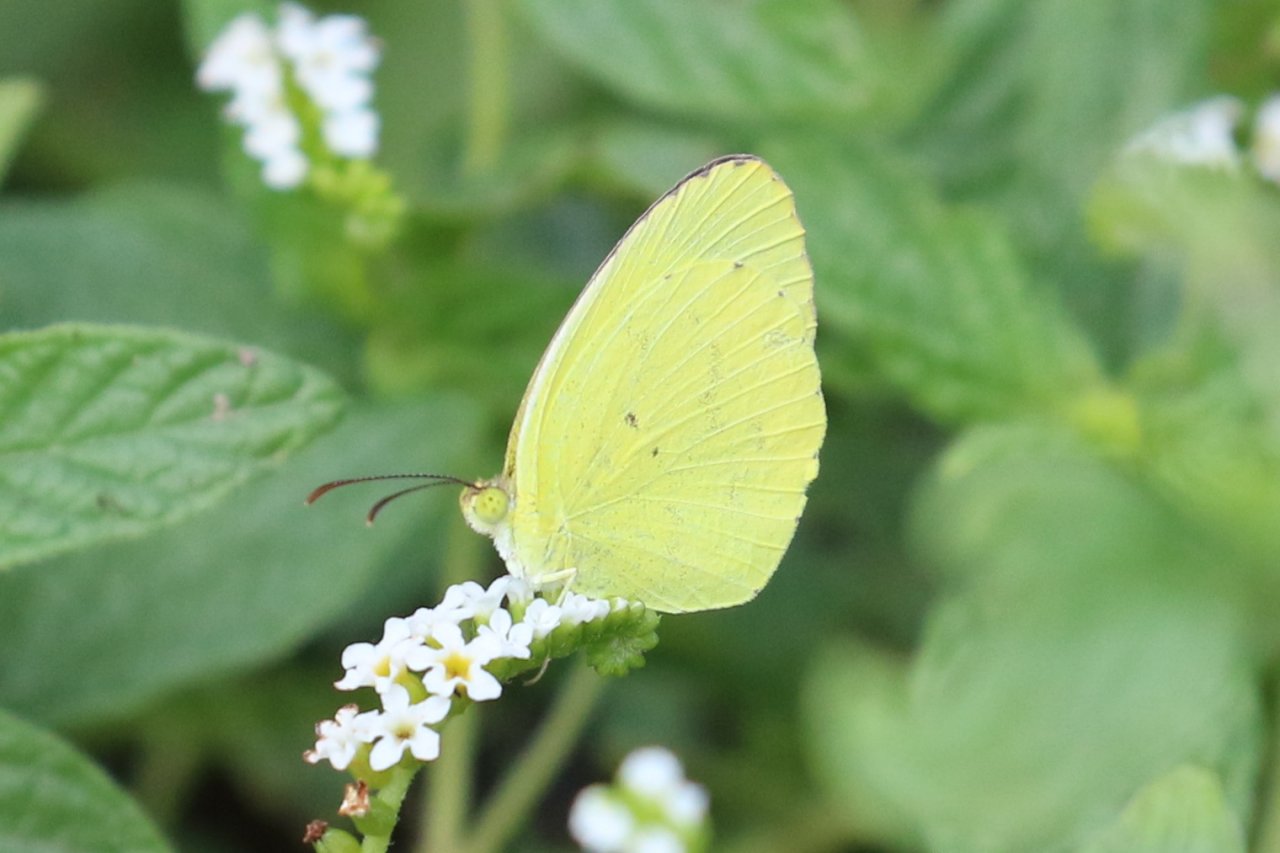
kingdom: Animalia
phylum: Arthropoda
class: Insecta
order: Lepidoptera
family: Pieridae
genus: Pyrisitia
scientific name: Pyrisitia nise
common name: Mimosa Yellow
